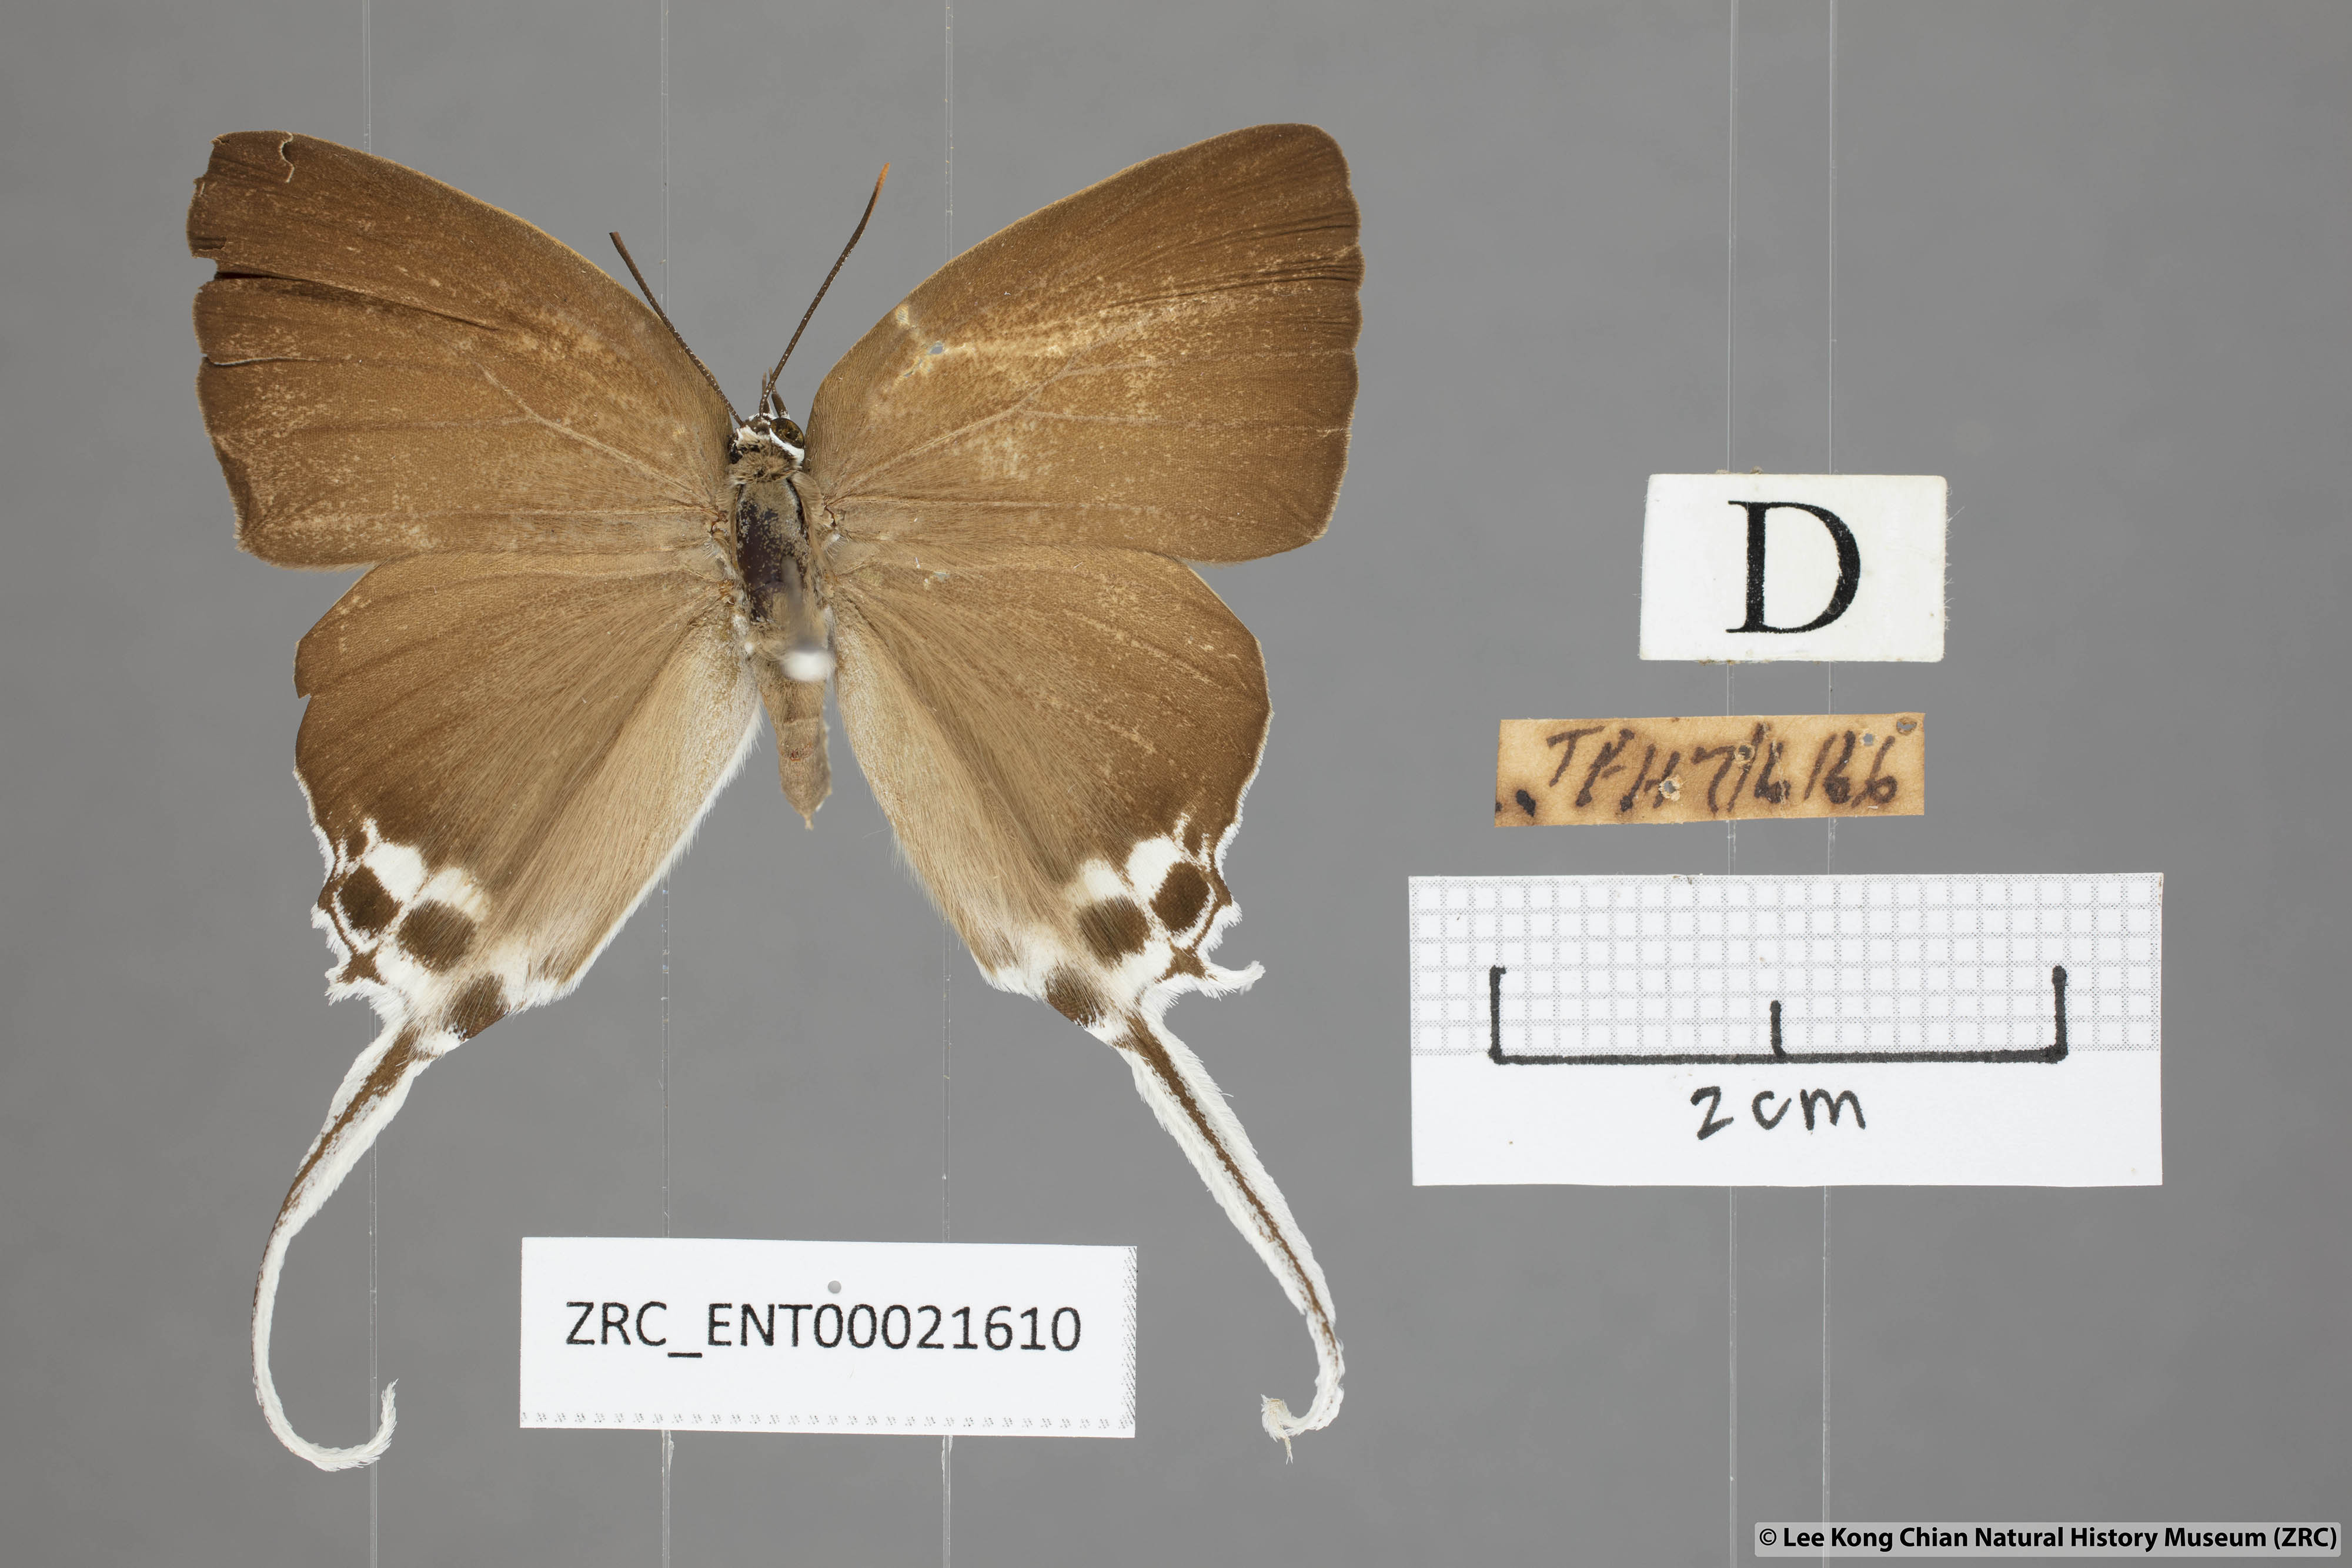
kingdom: Animalia
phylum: Arthropoda
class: Insecta
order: Lepidoptera
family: Lycaenidae
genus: Neocheritra
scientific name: Neocheritra amrita
